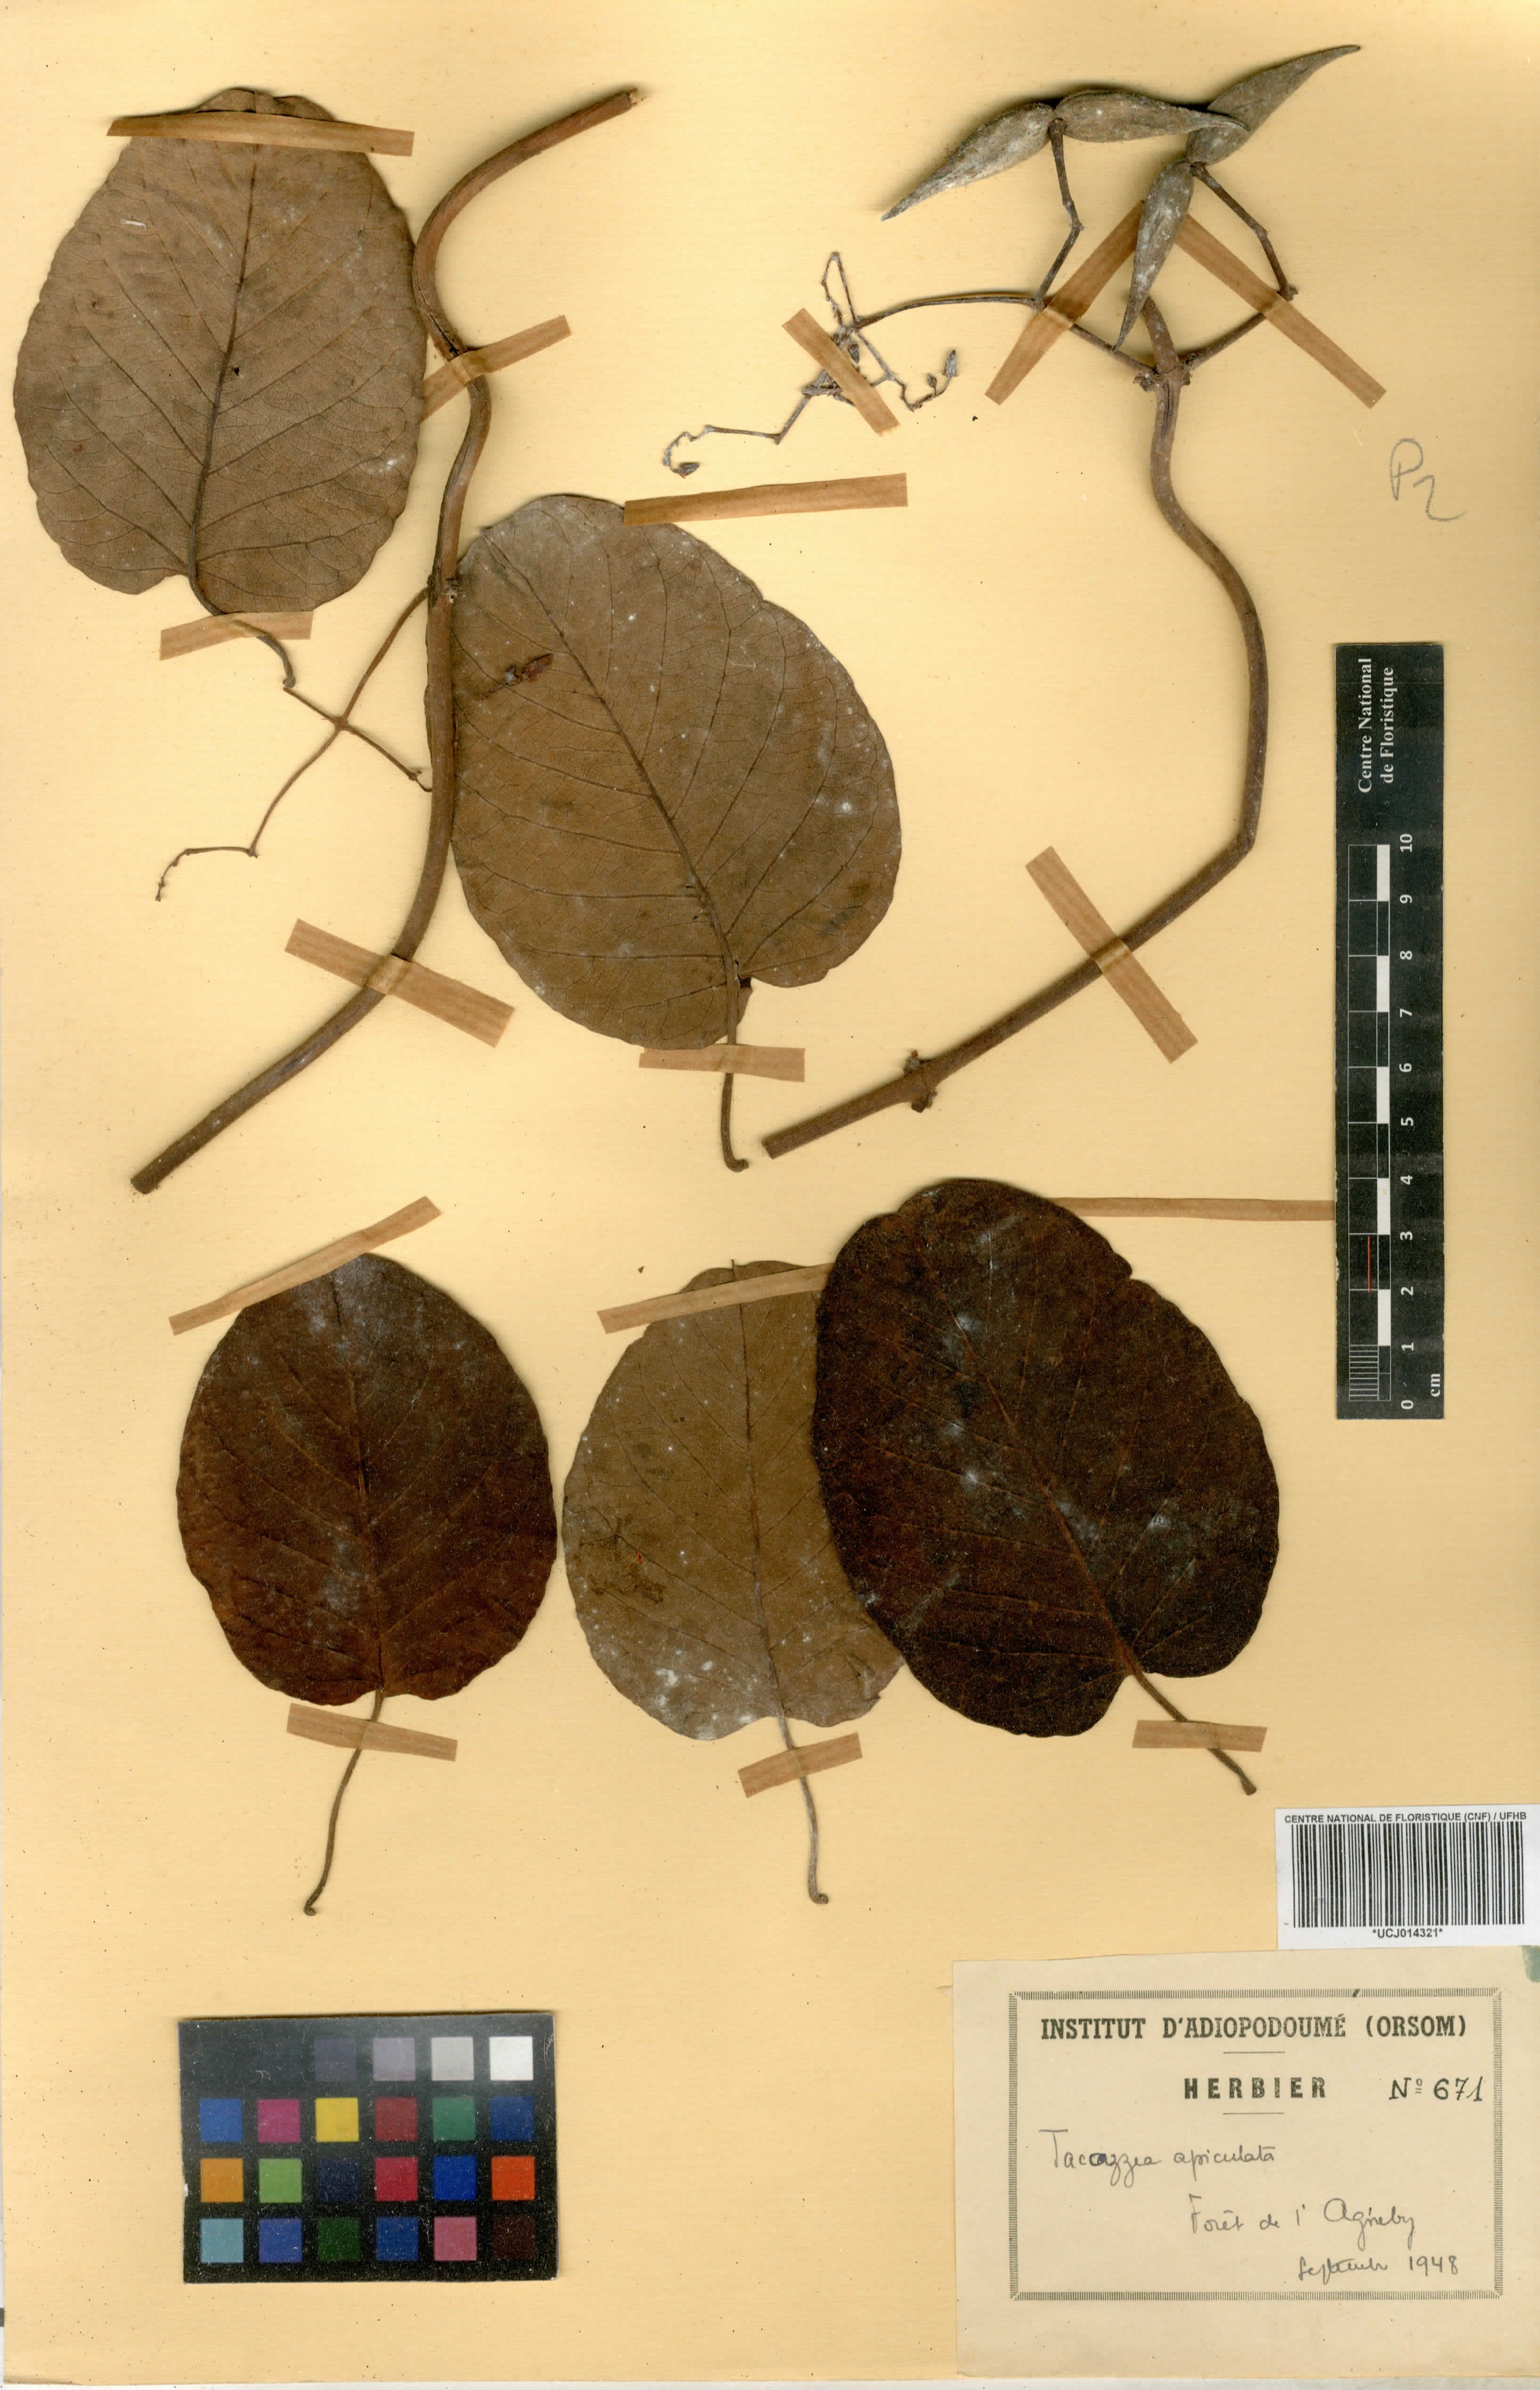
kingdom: Plantae
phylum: Tracheophyta
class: Magnoliopsida
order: Gentianales
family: Apocynaceae
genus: Tacazzea
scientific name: Tacazzea apiculata
